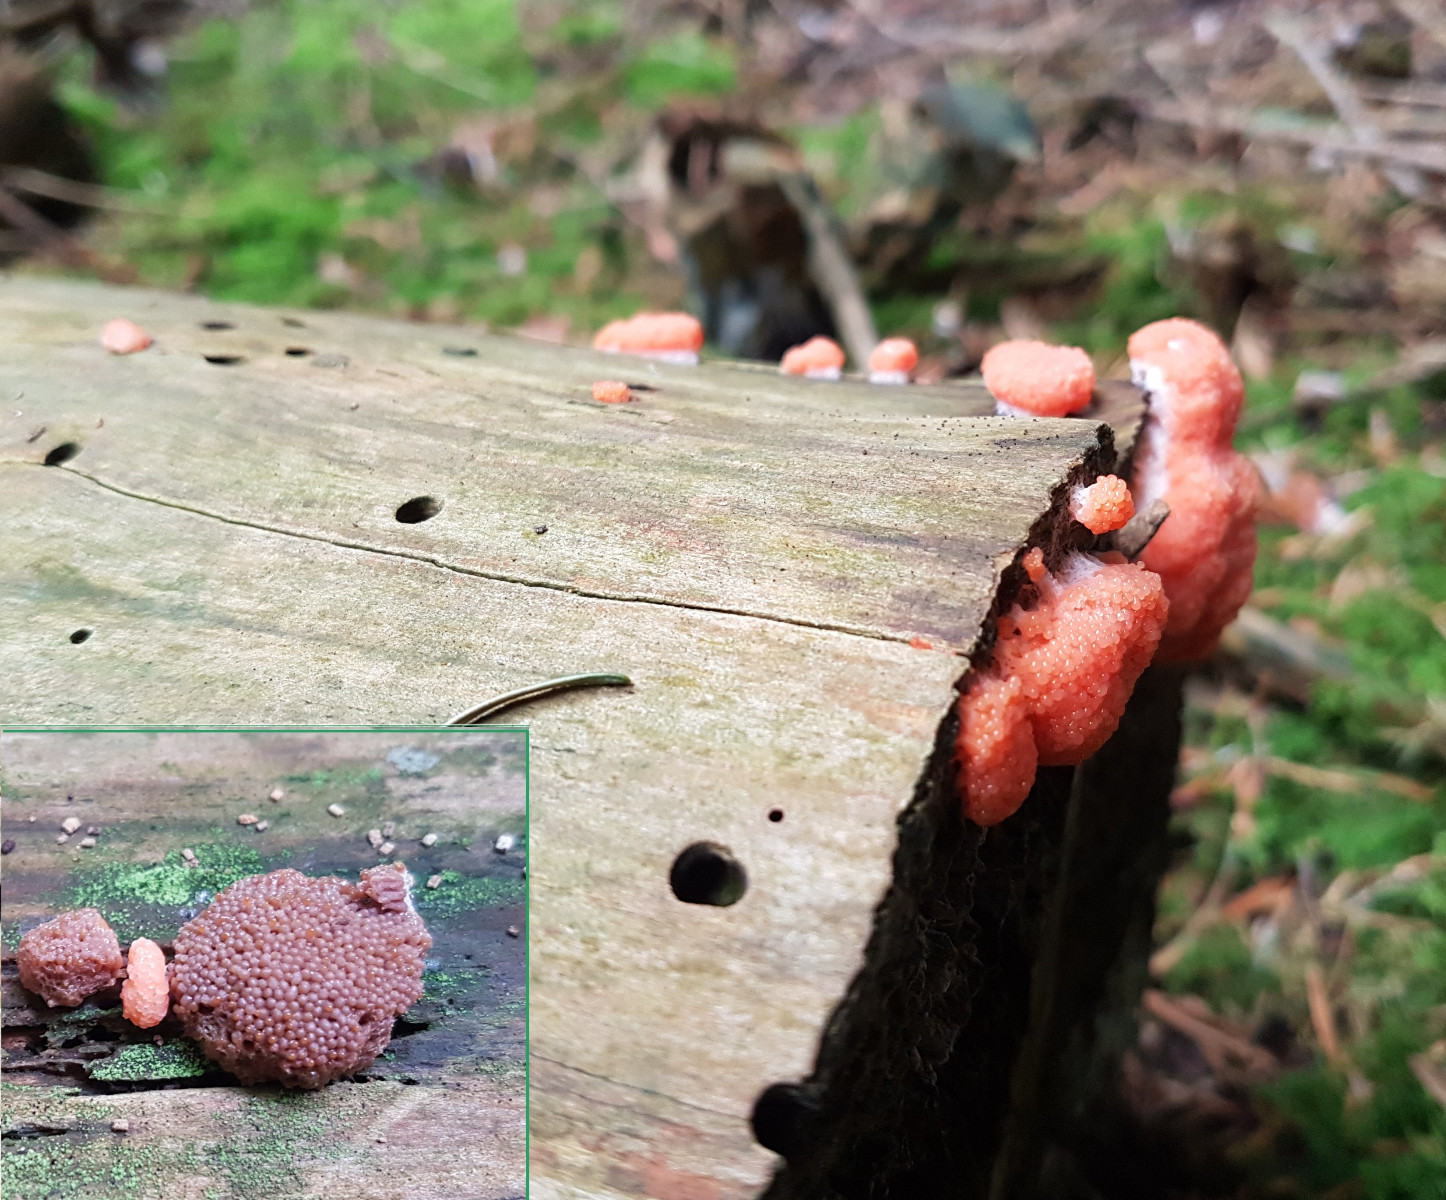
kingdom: Protozoa
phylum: Mycetozoa
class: Myxomycetes
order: Cribrariales
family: Tubiferaceae
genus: Tubifera
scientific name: Tubifera ferruginosa
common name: kanel-støvrør
